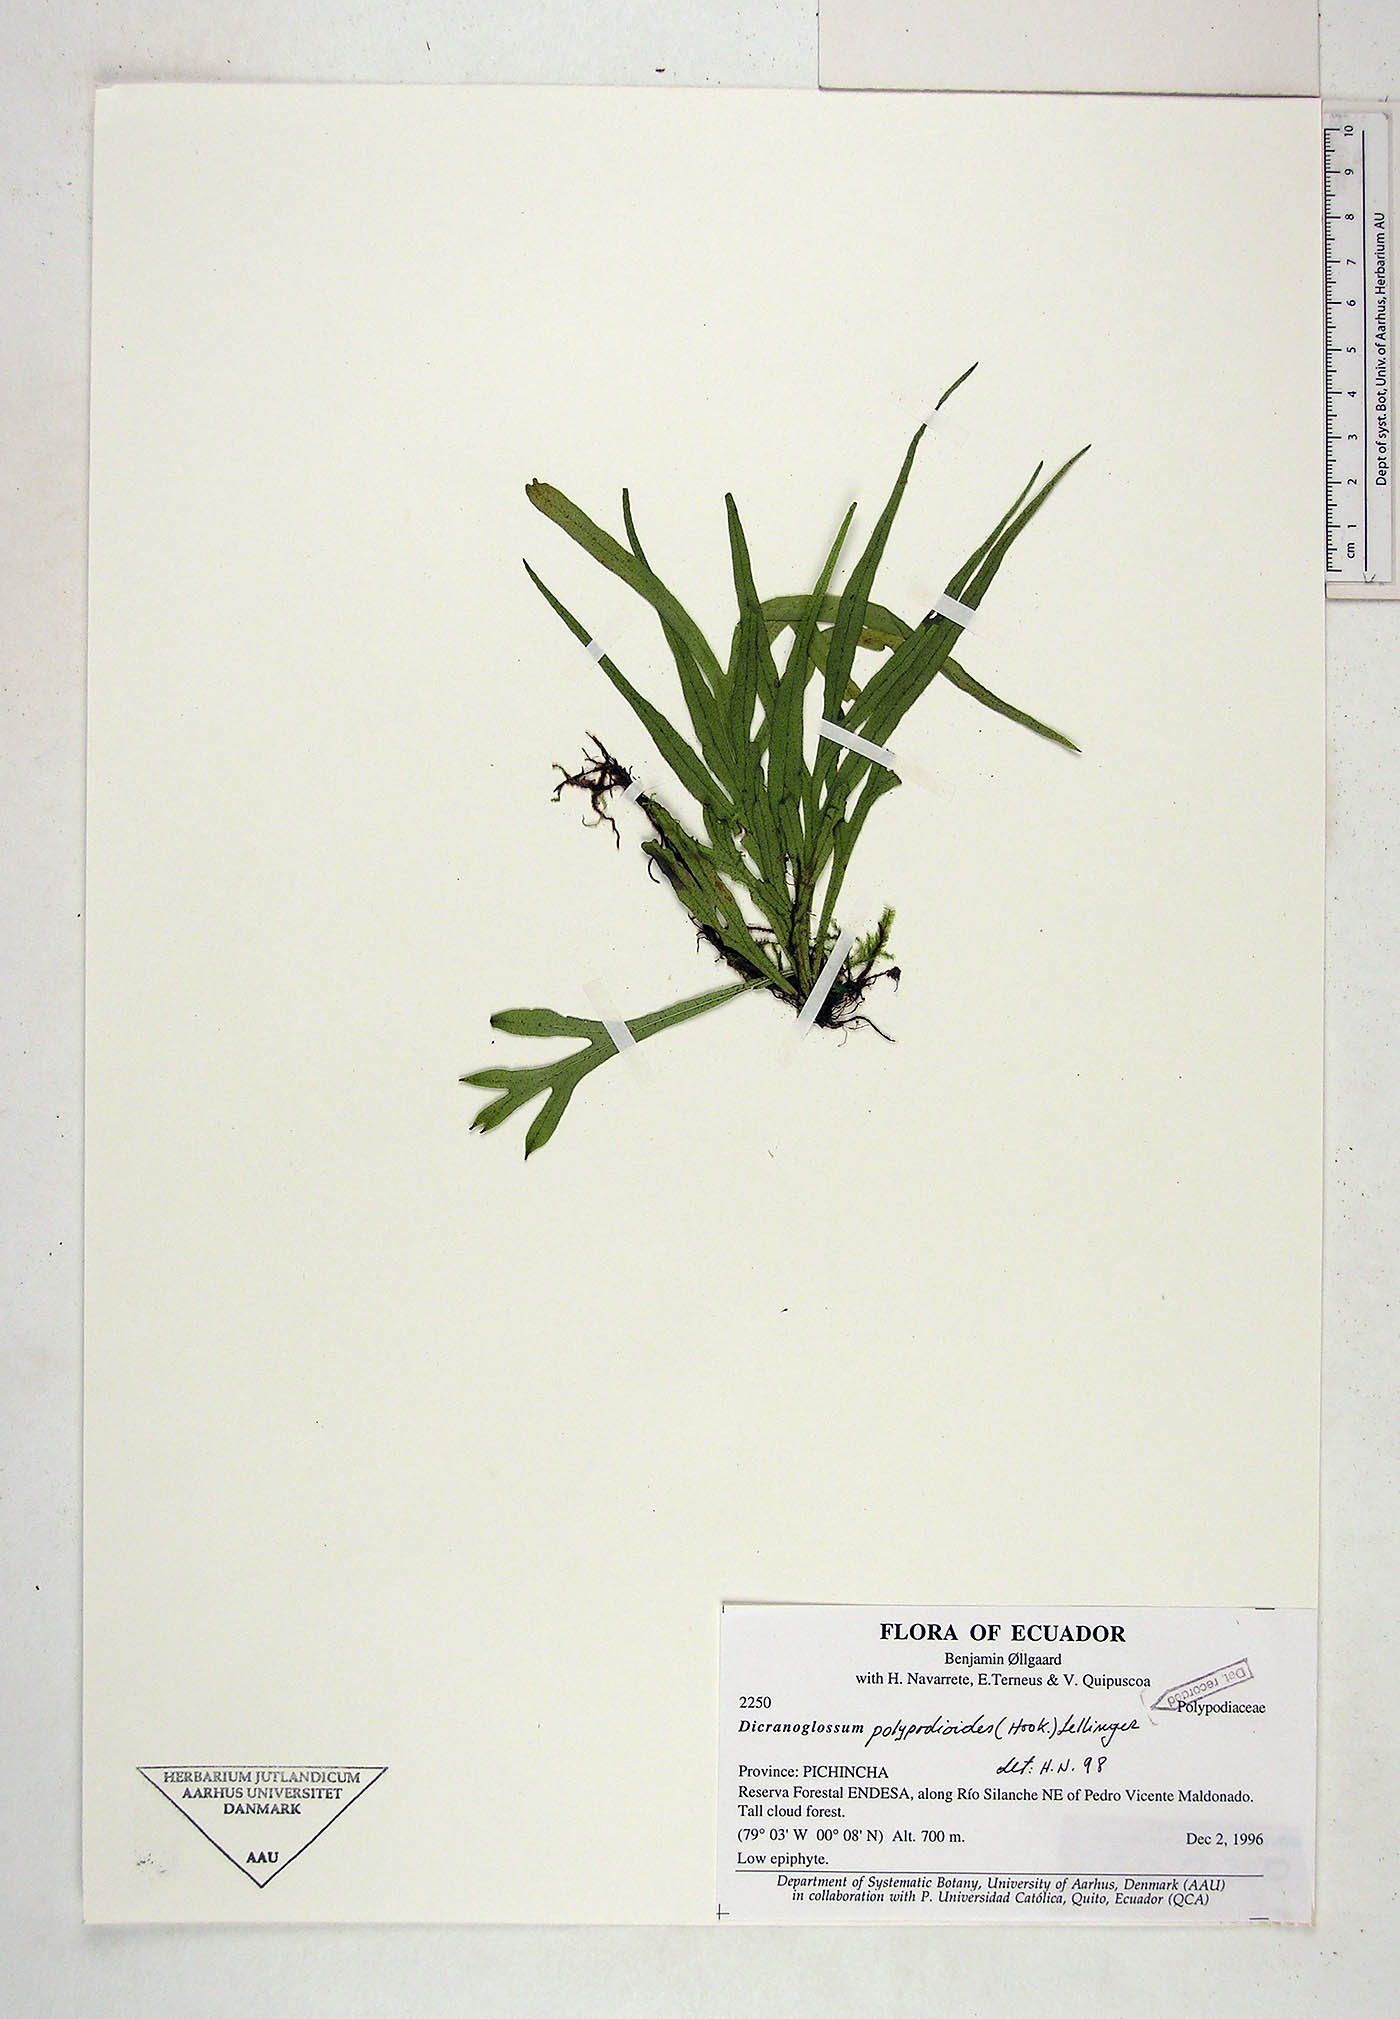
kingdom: Plantae
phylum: Tracheophyta
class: Polypodiopsida
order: Polypodiales
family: Polypodiaceae
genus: Pleopeltis
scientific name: Pleopeltis hookeri
